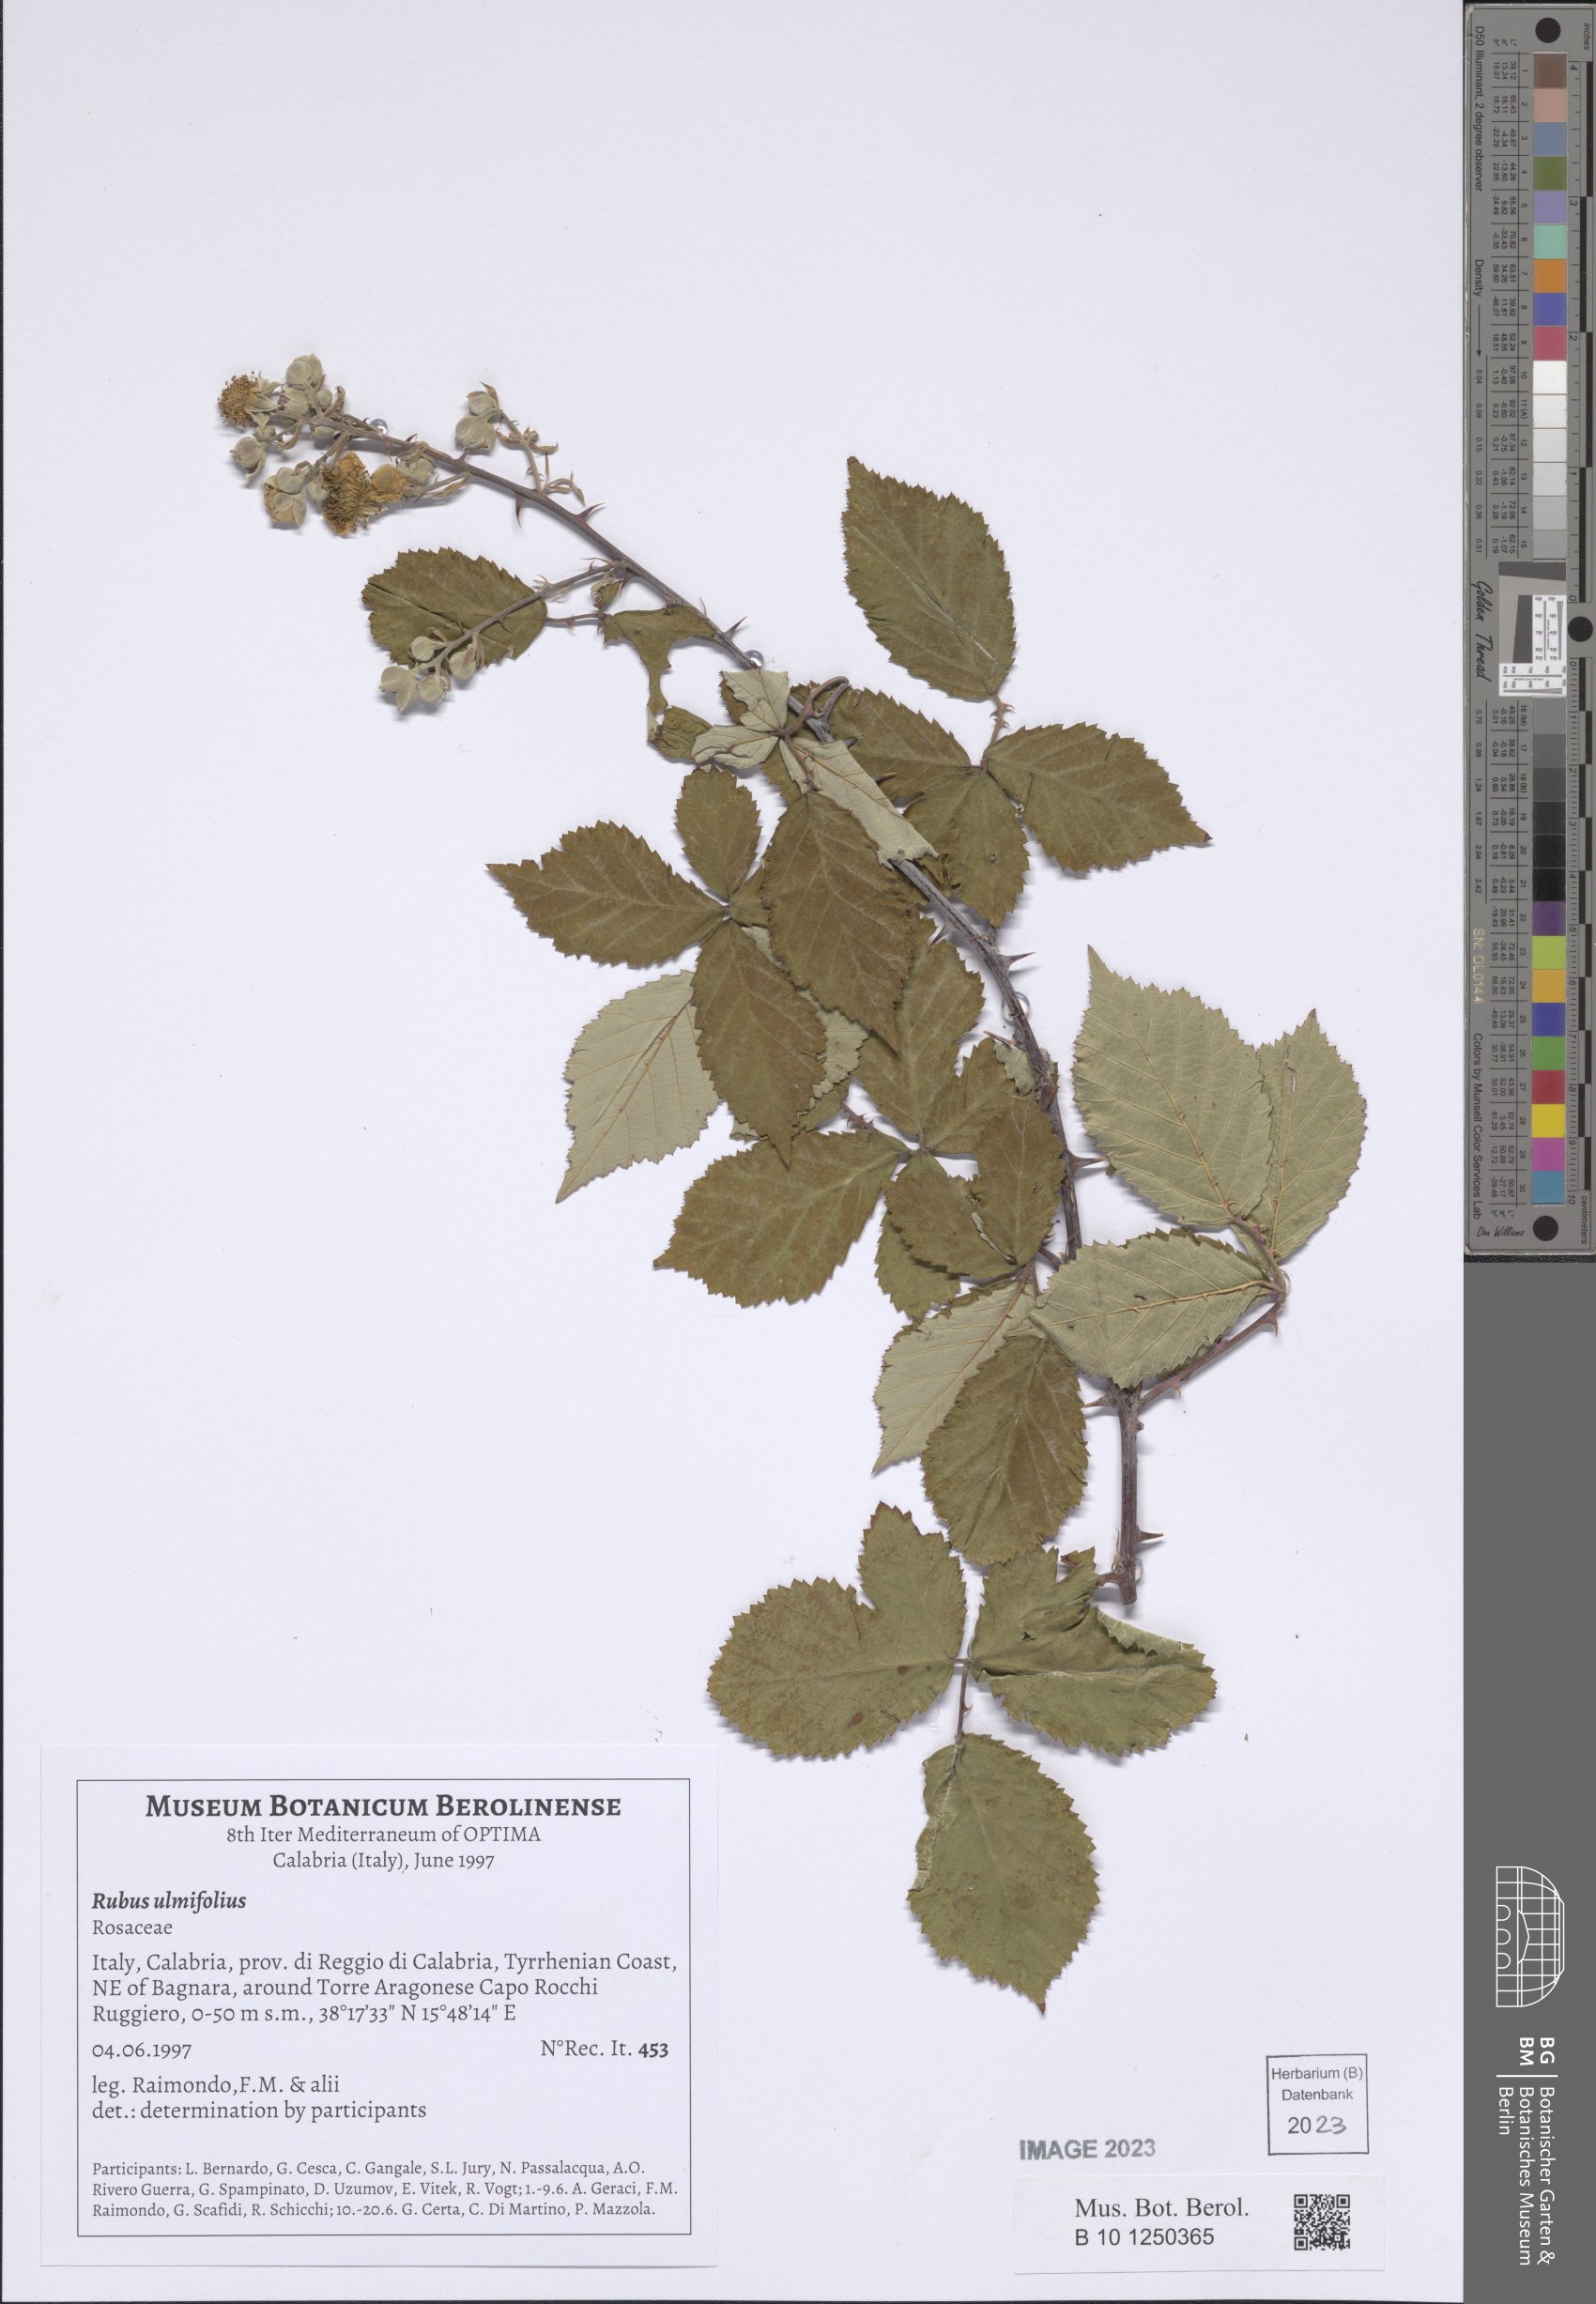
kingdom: Plantae
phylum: Tracheophyta
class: Magnoliopsida
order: Rosales
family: Rosaceae
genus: Rubus
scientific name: Rubus ulmifolius
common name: Elmleaf blackberry
